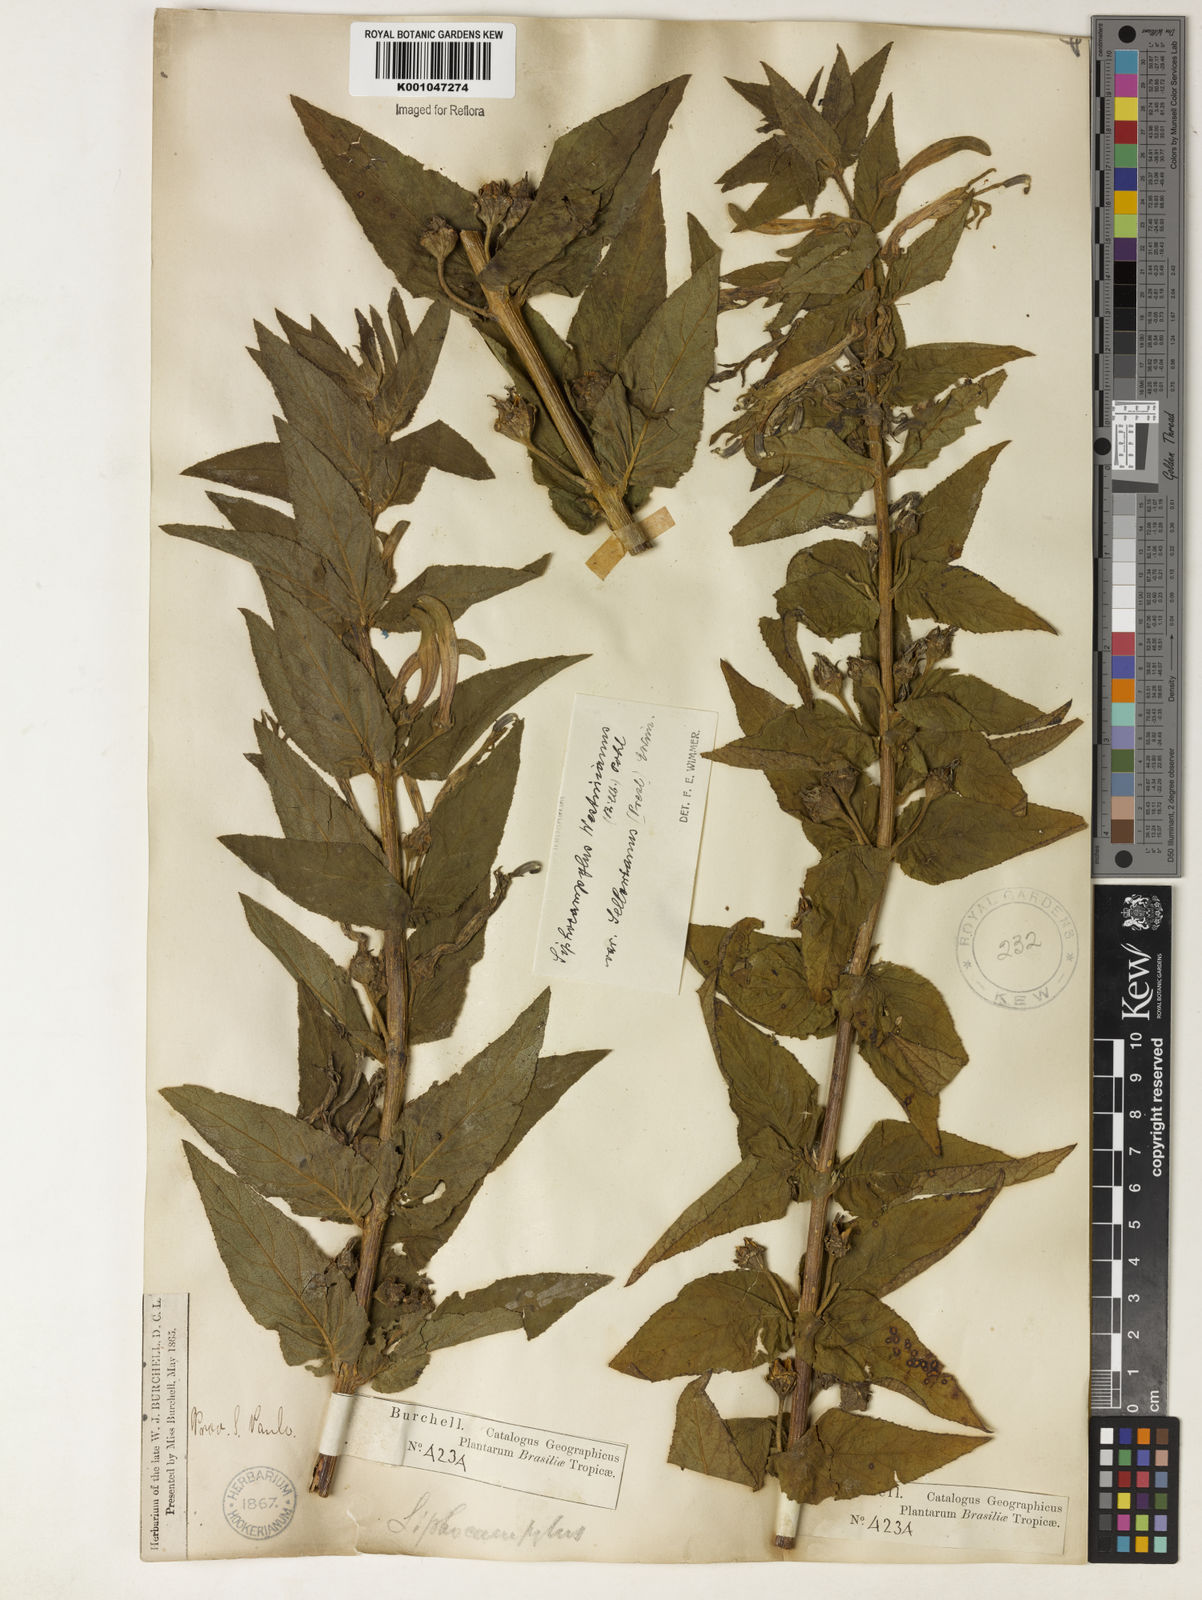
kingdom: Plantae
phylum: Tracheophyta
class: Magnoliopsida
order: Asterales
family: Campanulaceae
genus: Siphocampylus
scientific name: Siphocampylus westinianus
